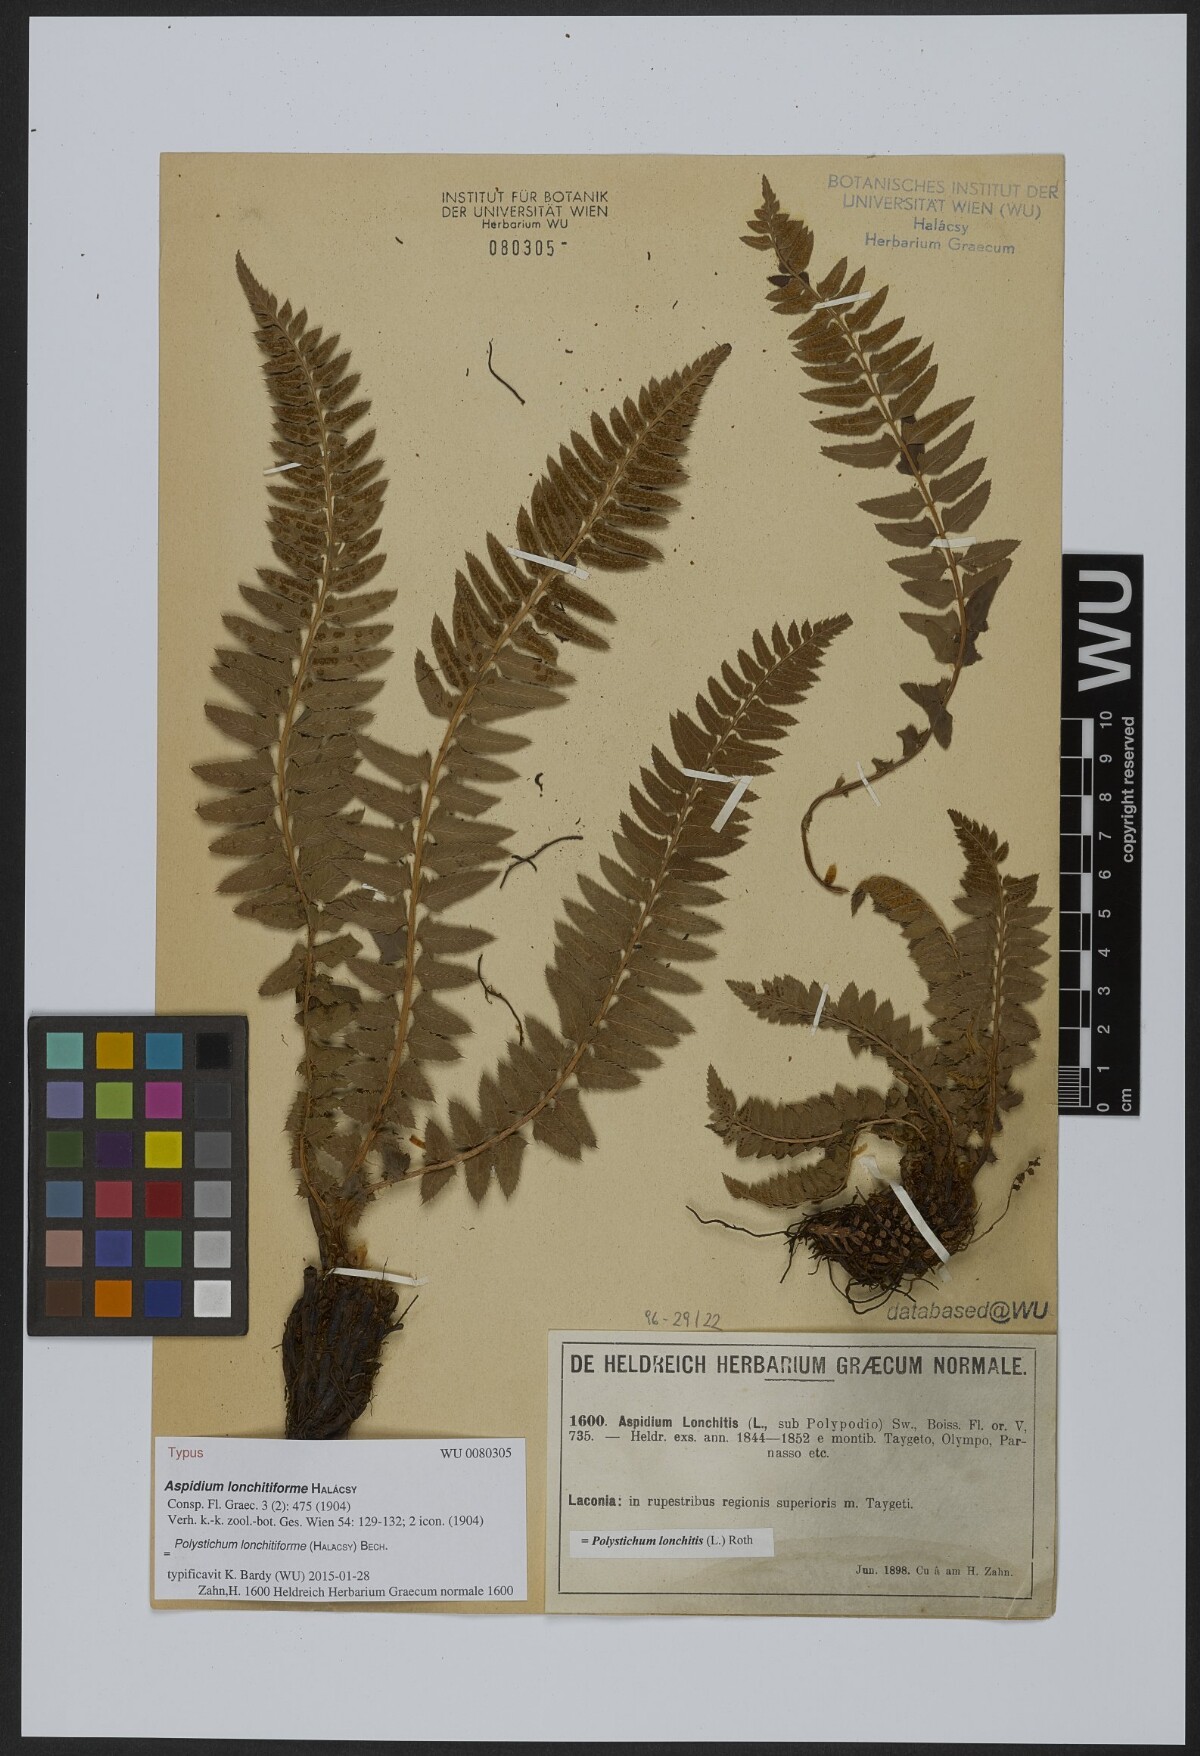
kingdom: Plantae
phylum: Tracheophyta
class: Polypodiopsida
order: Polypodiales
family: Dryopteridaceae
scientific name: Dryopteridaceae
